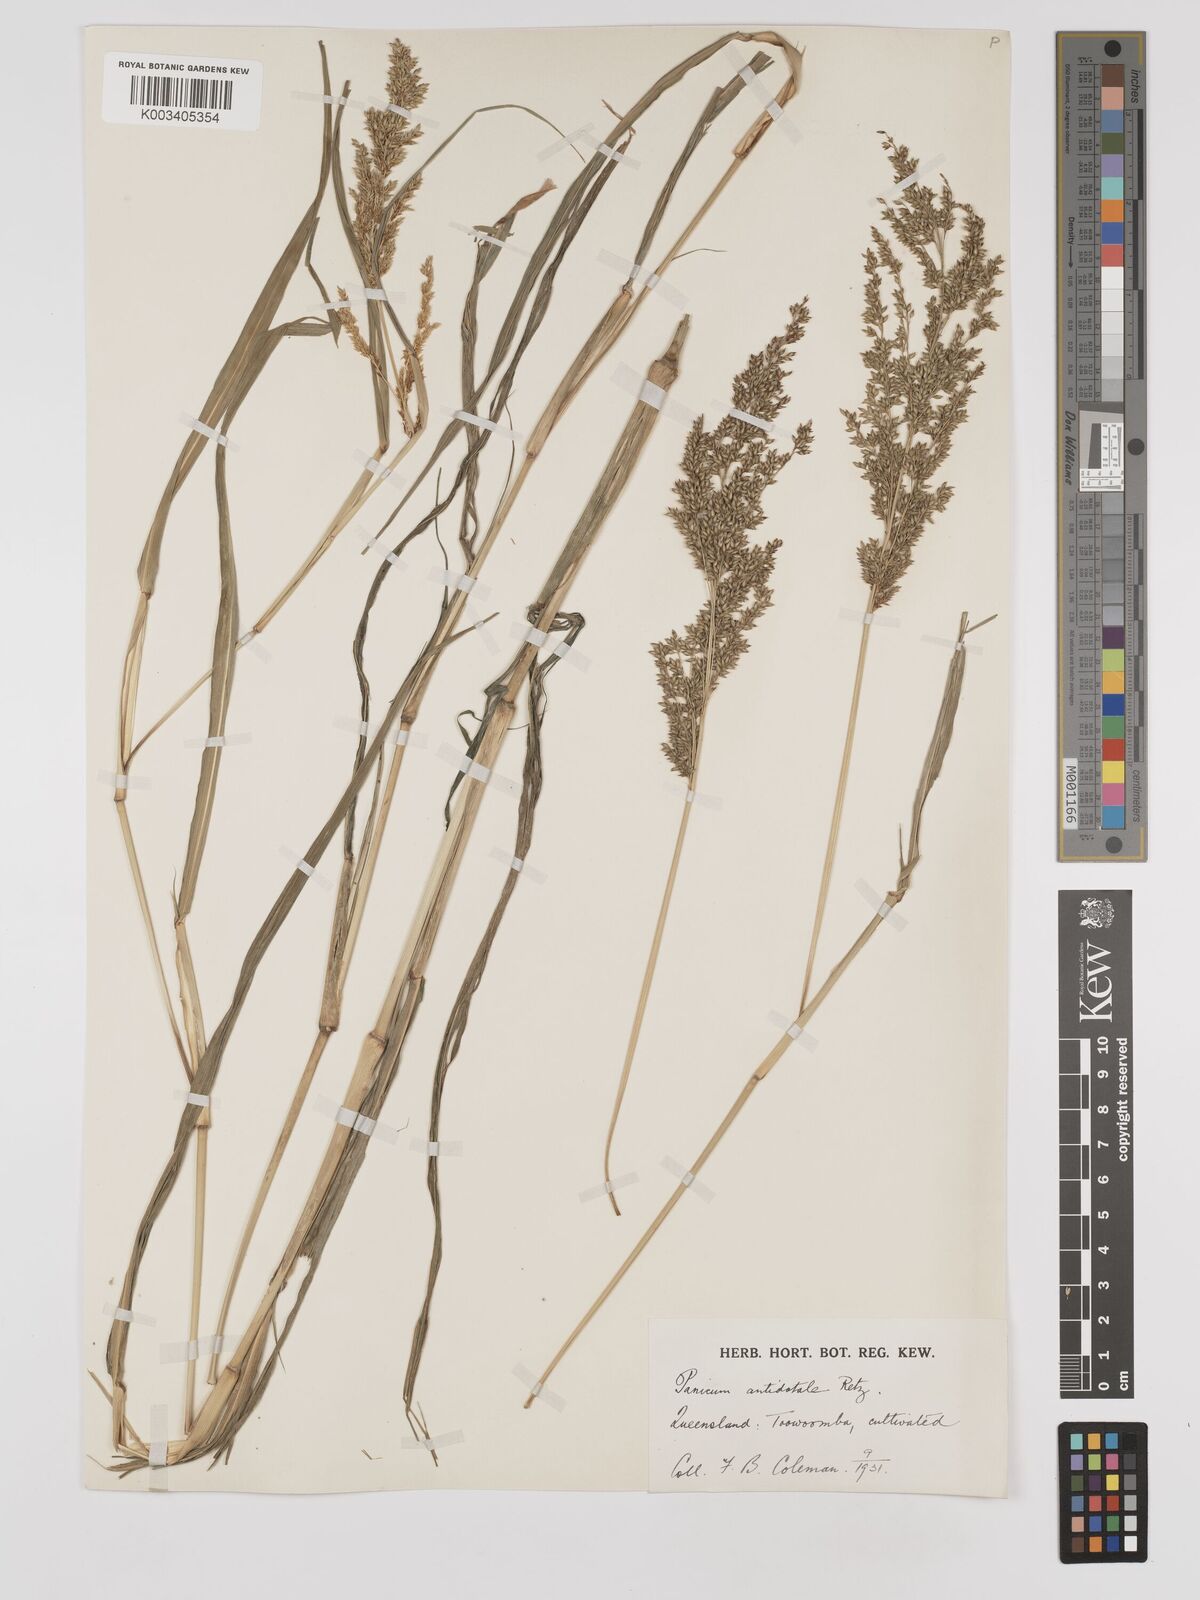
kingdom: Plantae
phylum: Tracheophyta
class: Liliopsida
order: Poales
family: Poaceae
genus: Panicum
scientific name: Panicum antidotale
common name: Blue panicum
